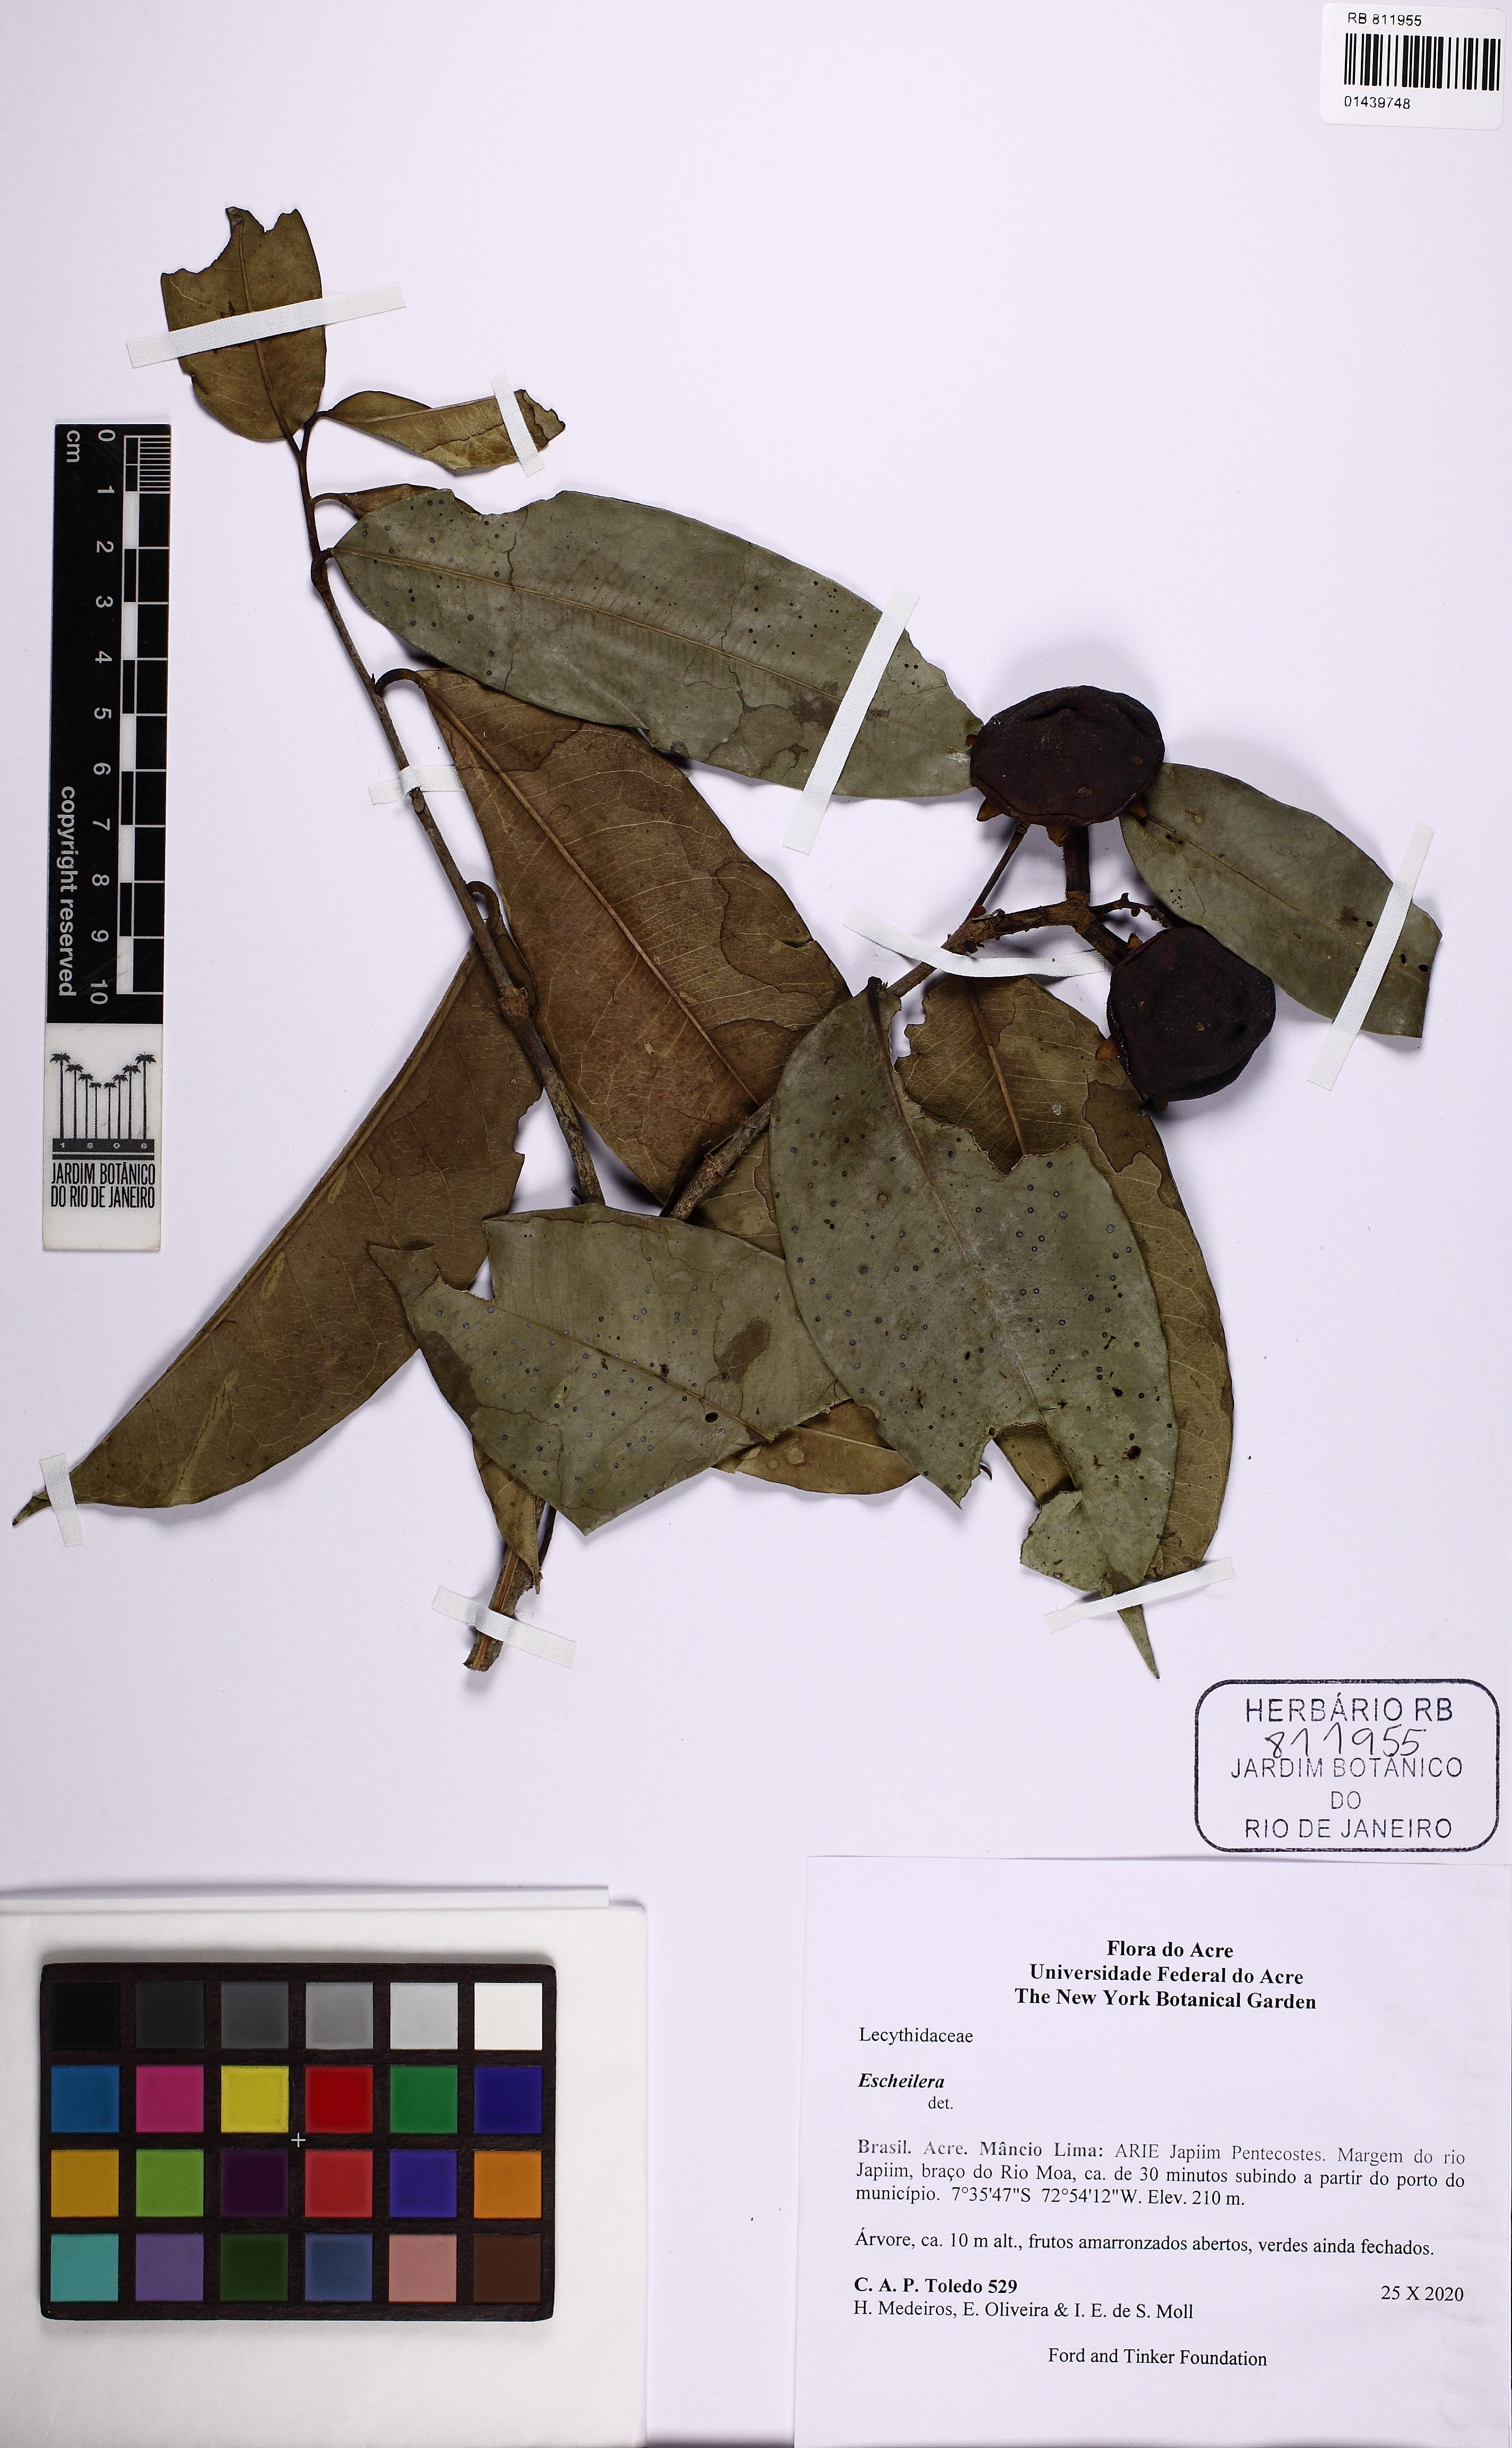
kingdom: Plantae
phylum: Tracheophyta
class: Magnoliopsida
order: Ericales
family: Lecythidaceae
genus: Eschweilera
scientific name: Eschweilera
